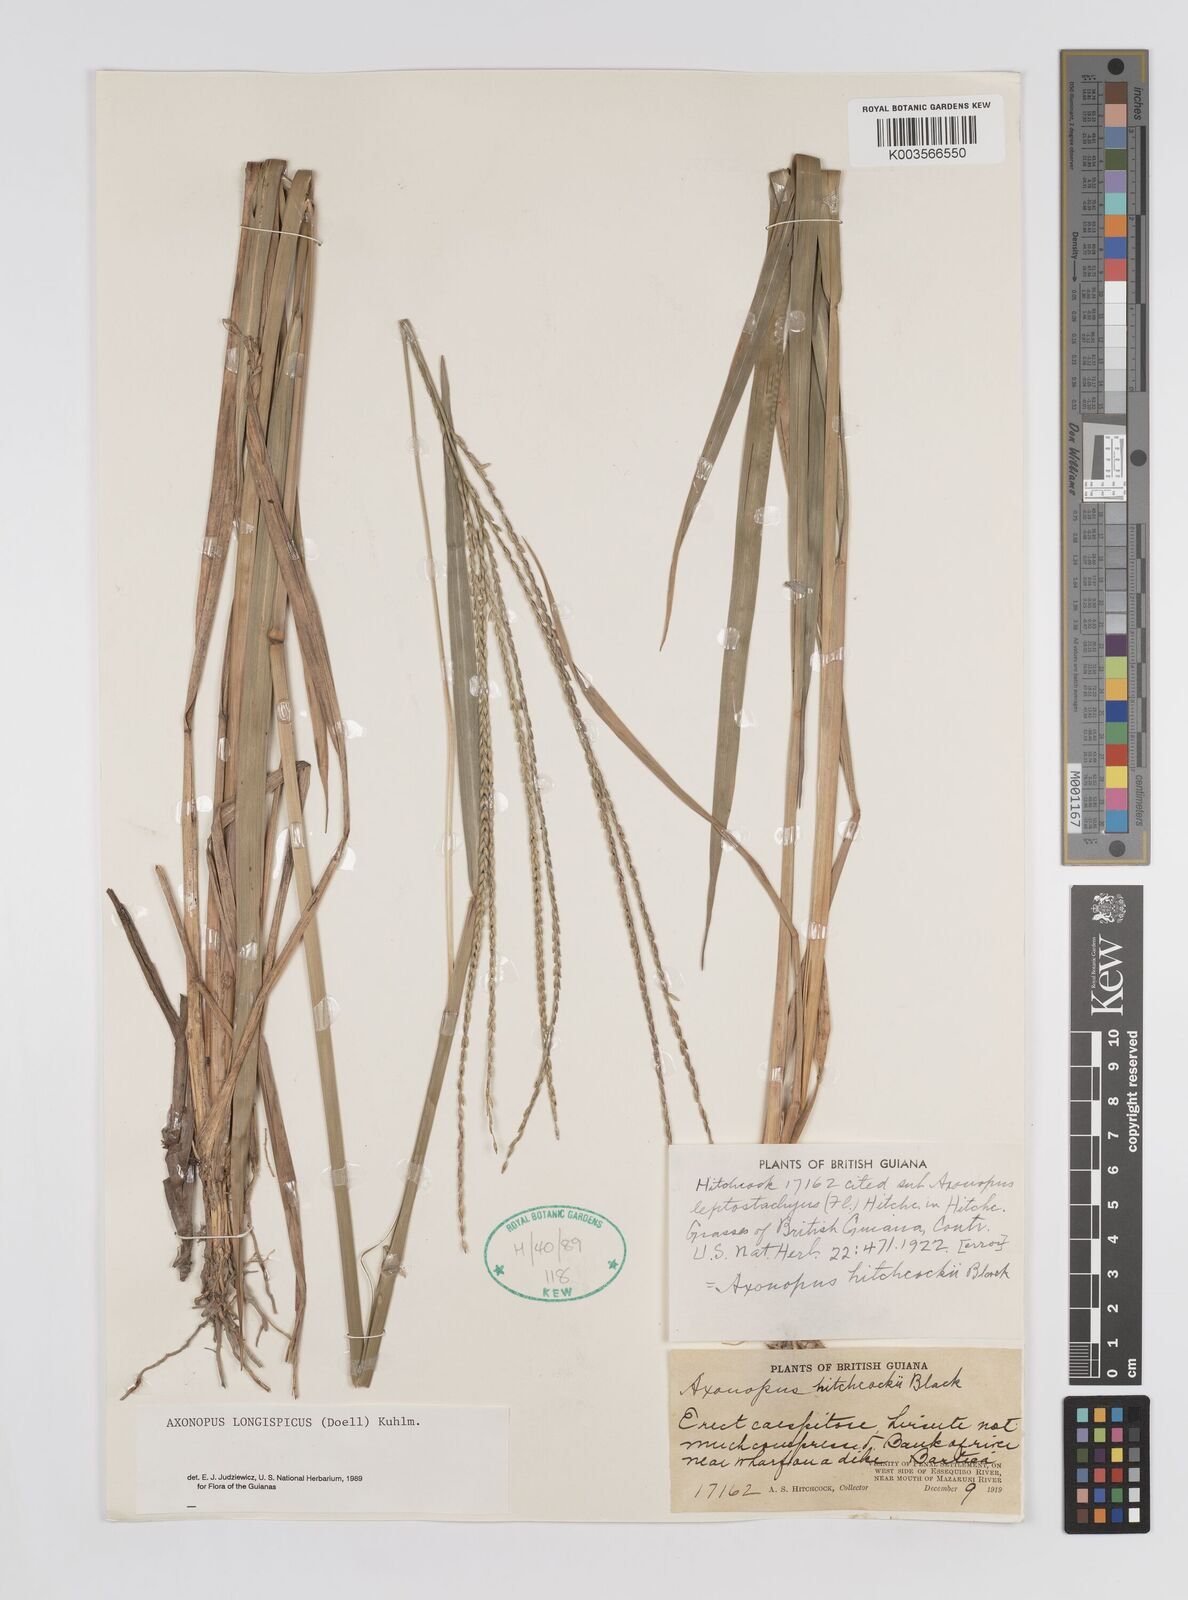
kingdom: Plantae
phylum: Tracheophyta
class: Liliopsida
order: Poales
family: Poaceae
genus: Axonopus
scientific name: Axonopus longispicus
